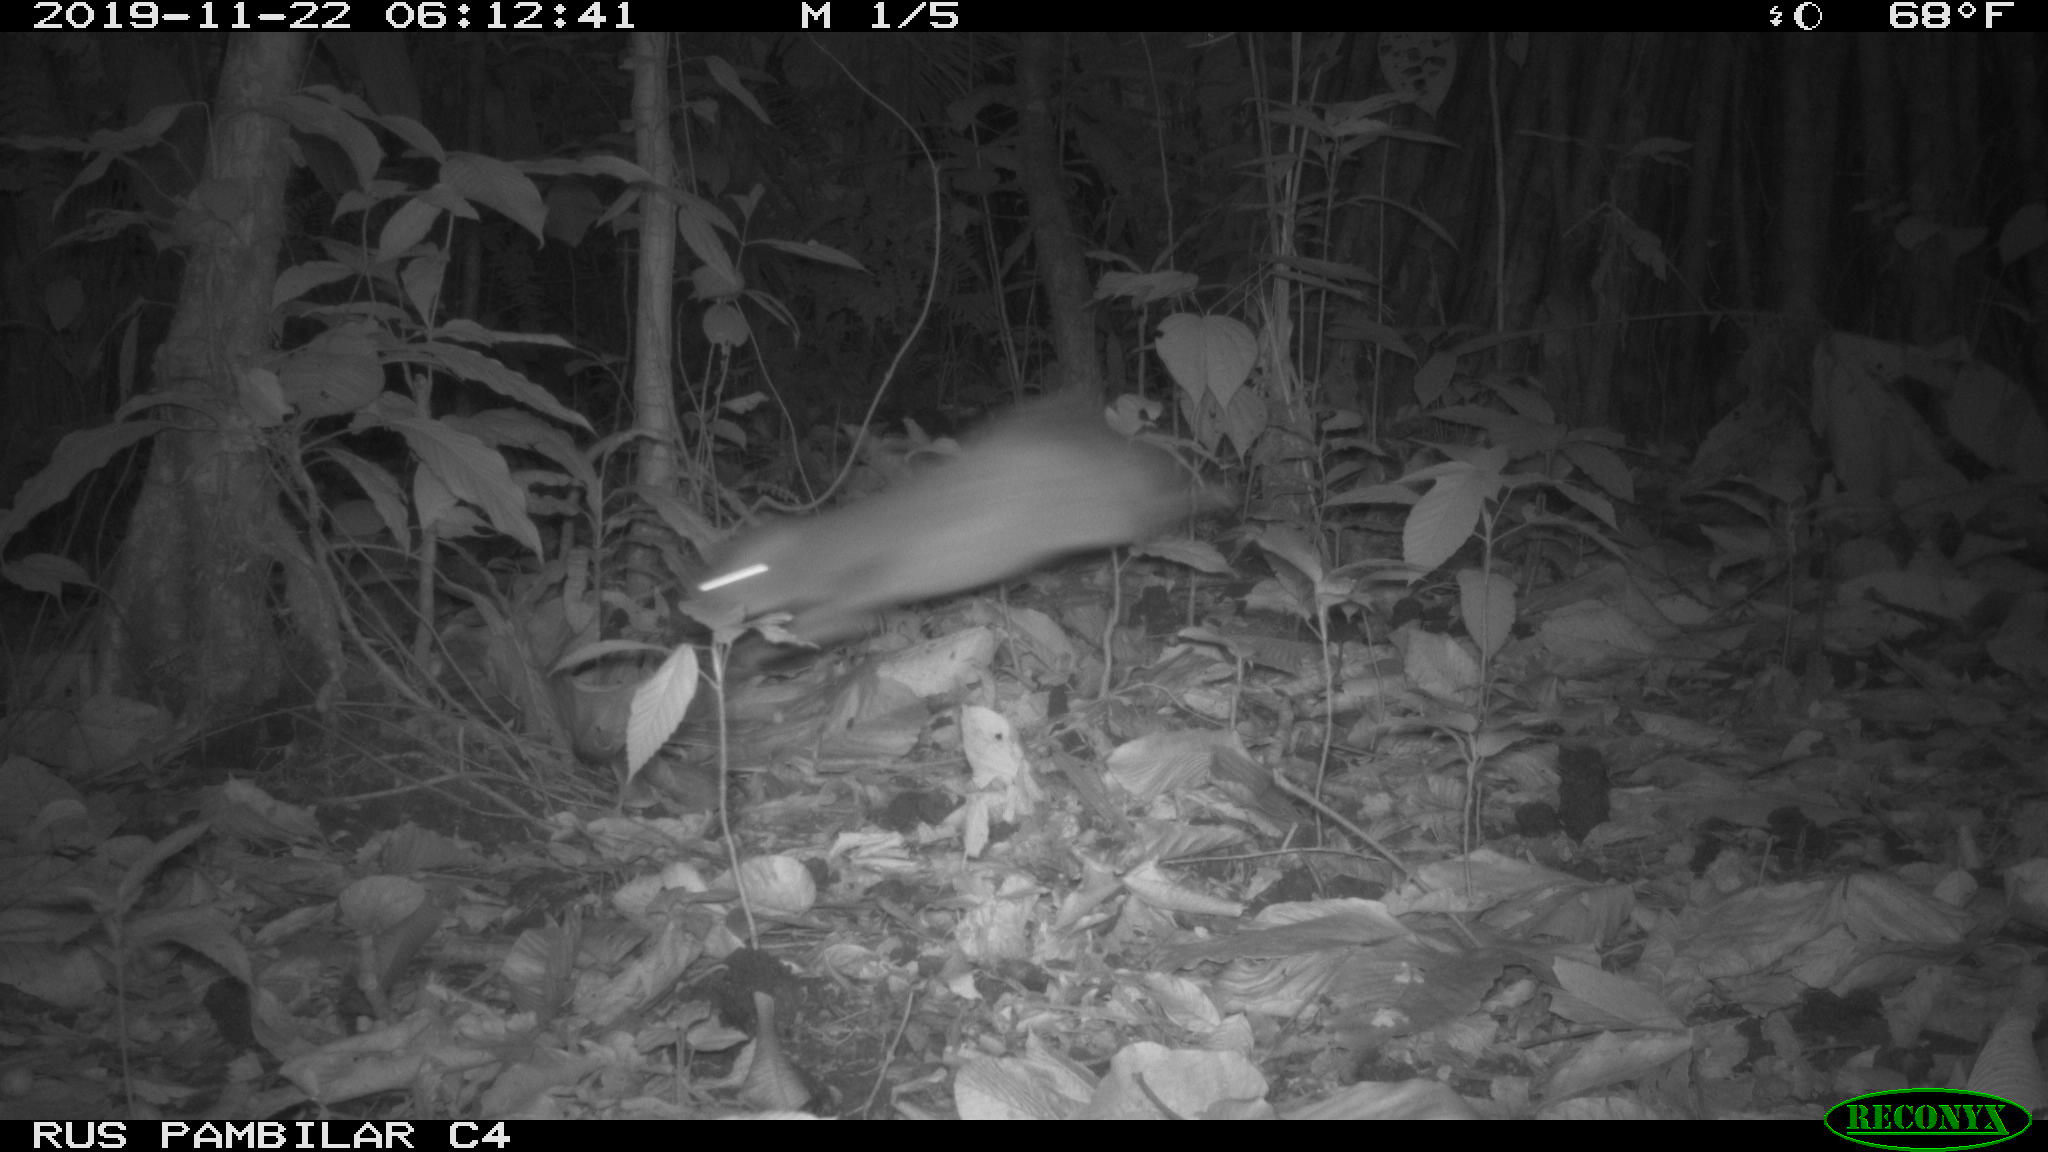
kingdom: Animalia
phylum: Chordata
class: Mammalia
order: Rodentia
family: Dasyproctidae
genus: Dasyprocta
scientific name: Dasyprocta punctata
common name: Central american agouti
